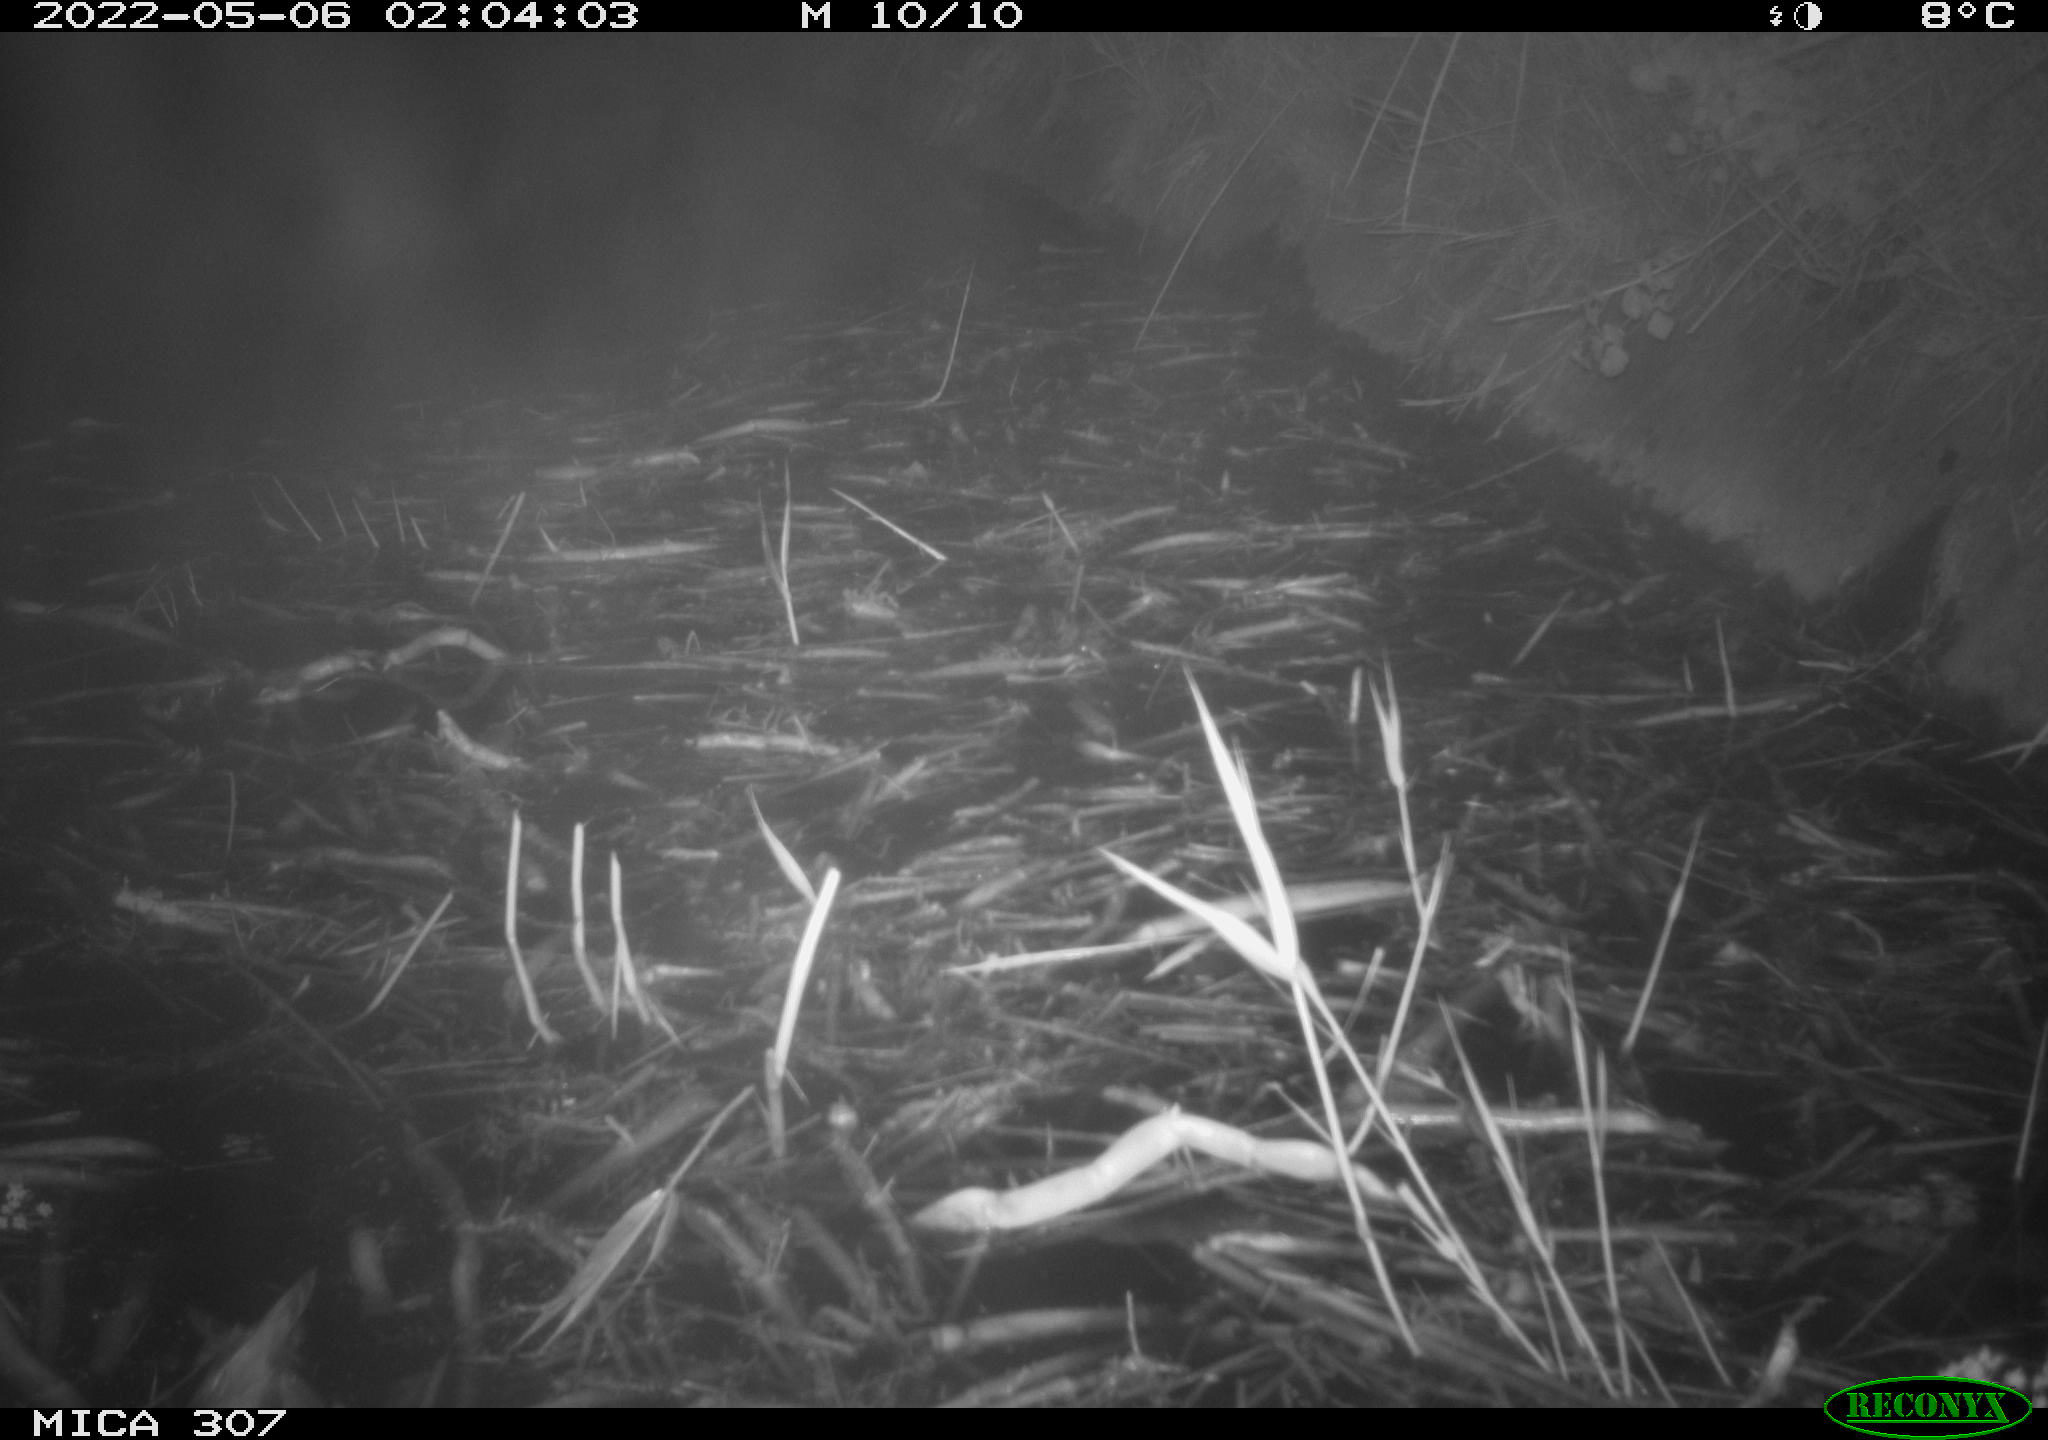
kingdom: Animalia
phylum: Chordata
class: Aves
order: Anseriformes
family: Anatidae
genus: Anas
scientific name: Anas platyrhynchos
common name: Mallard
